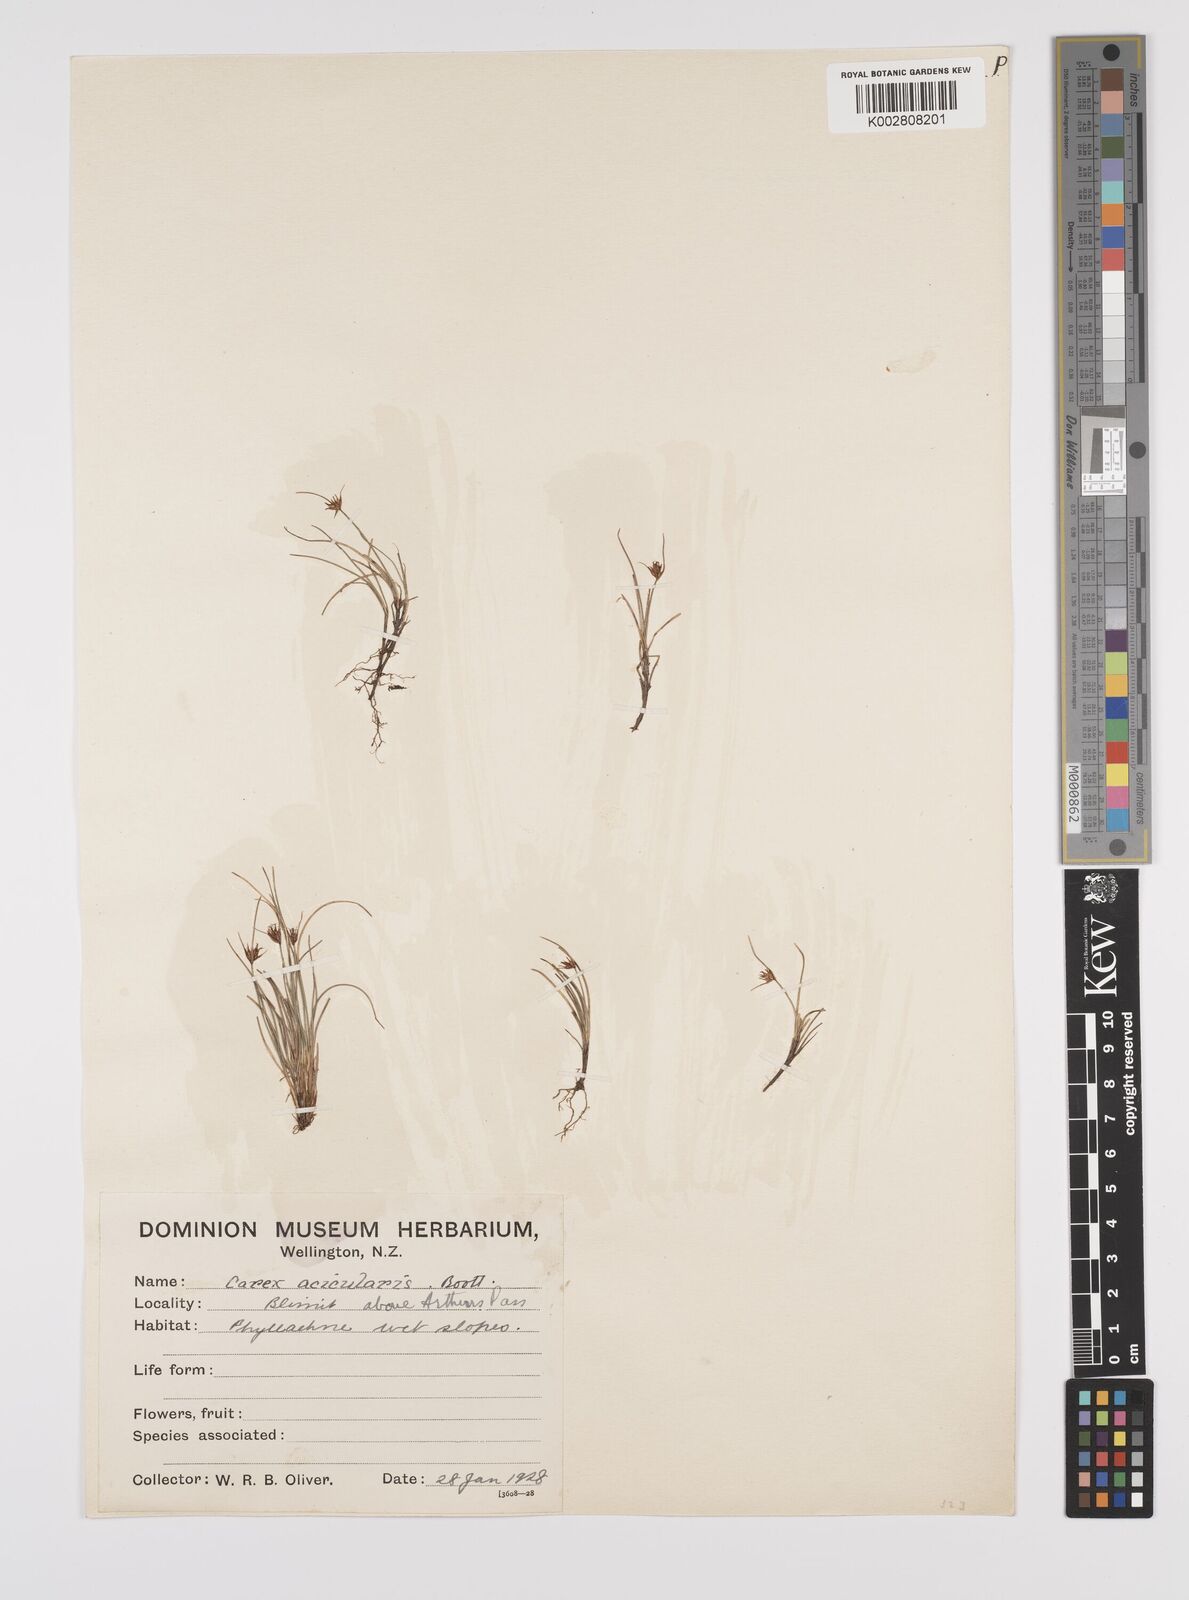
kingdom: Plantae
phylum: Tracheophyta
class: Liliopsida
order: Poales
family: Cyperaceae
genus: Carex
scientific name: Carex acicularis
